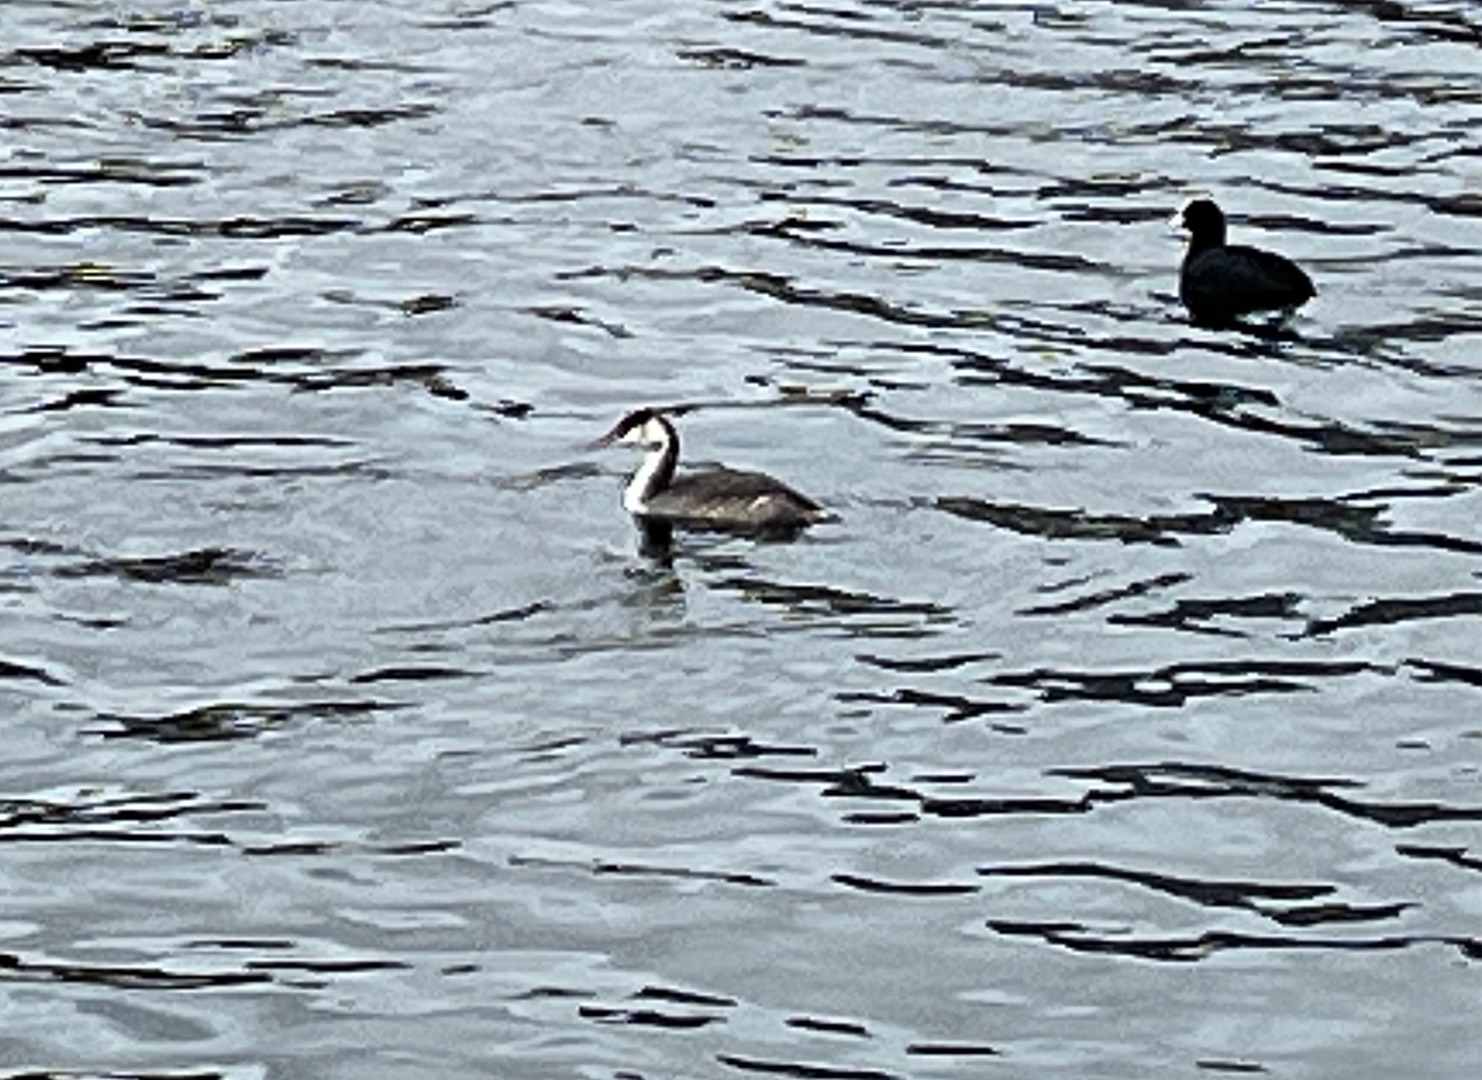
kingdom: Animalia
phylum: Chordata
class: Aves
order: Podicipediformes
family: Podicipedidae
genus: Podiceps
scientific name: Podiceps cristatus
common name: Toppet lappedykker
